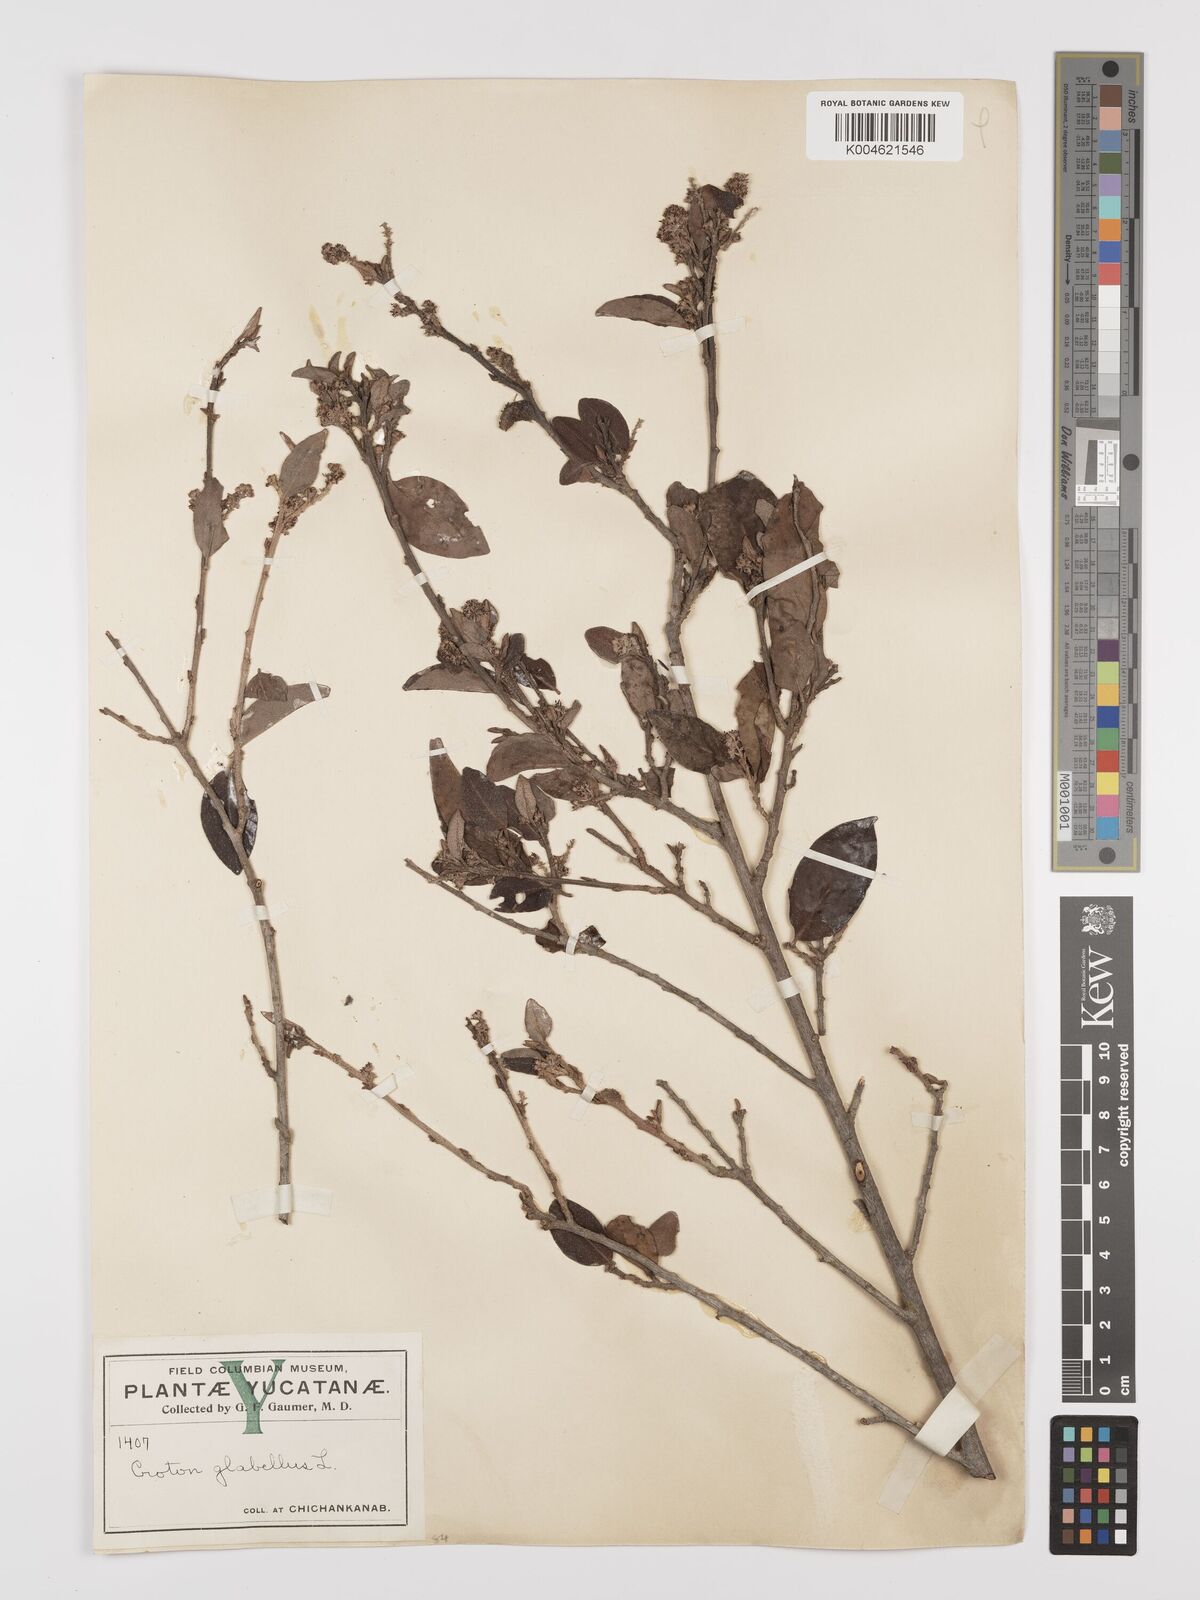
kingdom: Plantae
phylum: Tracheophyta
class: Magnoliopsida
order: Malpighiales
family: Euphorbiaceae
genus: Croton
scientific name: Croton glabellus
